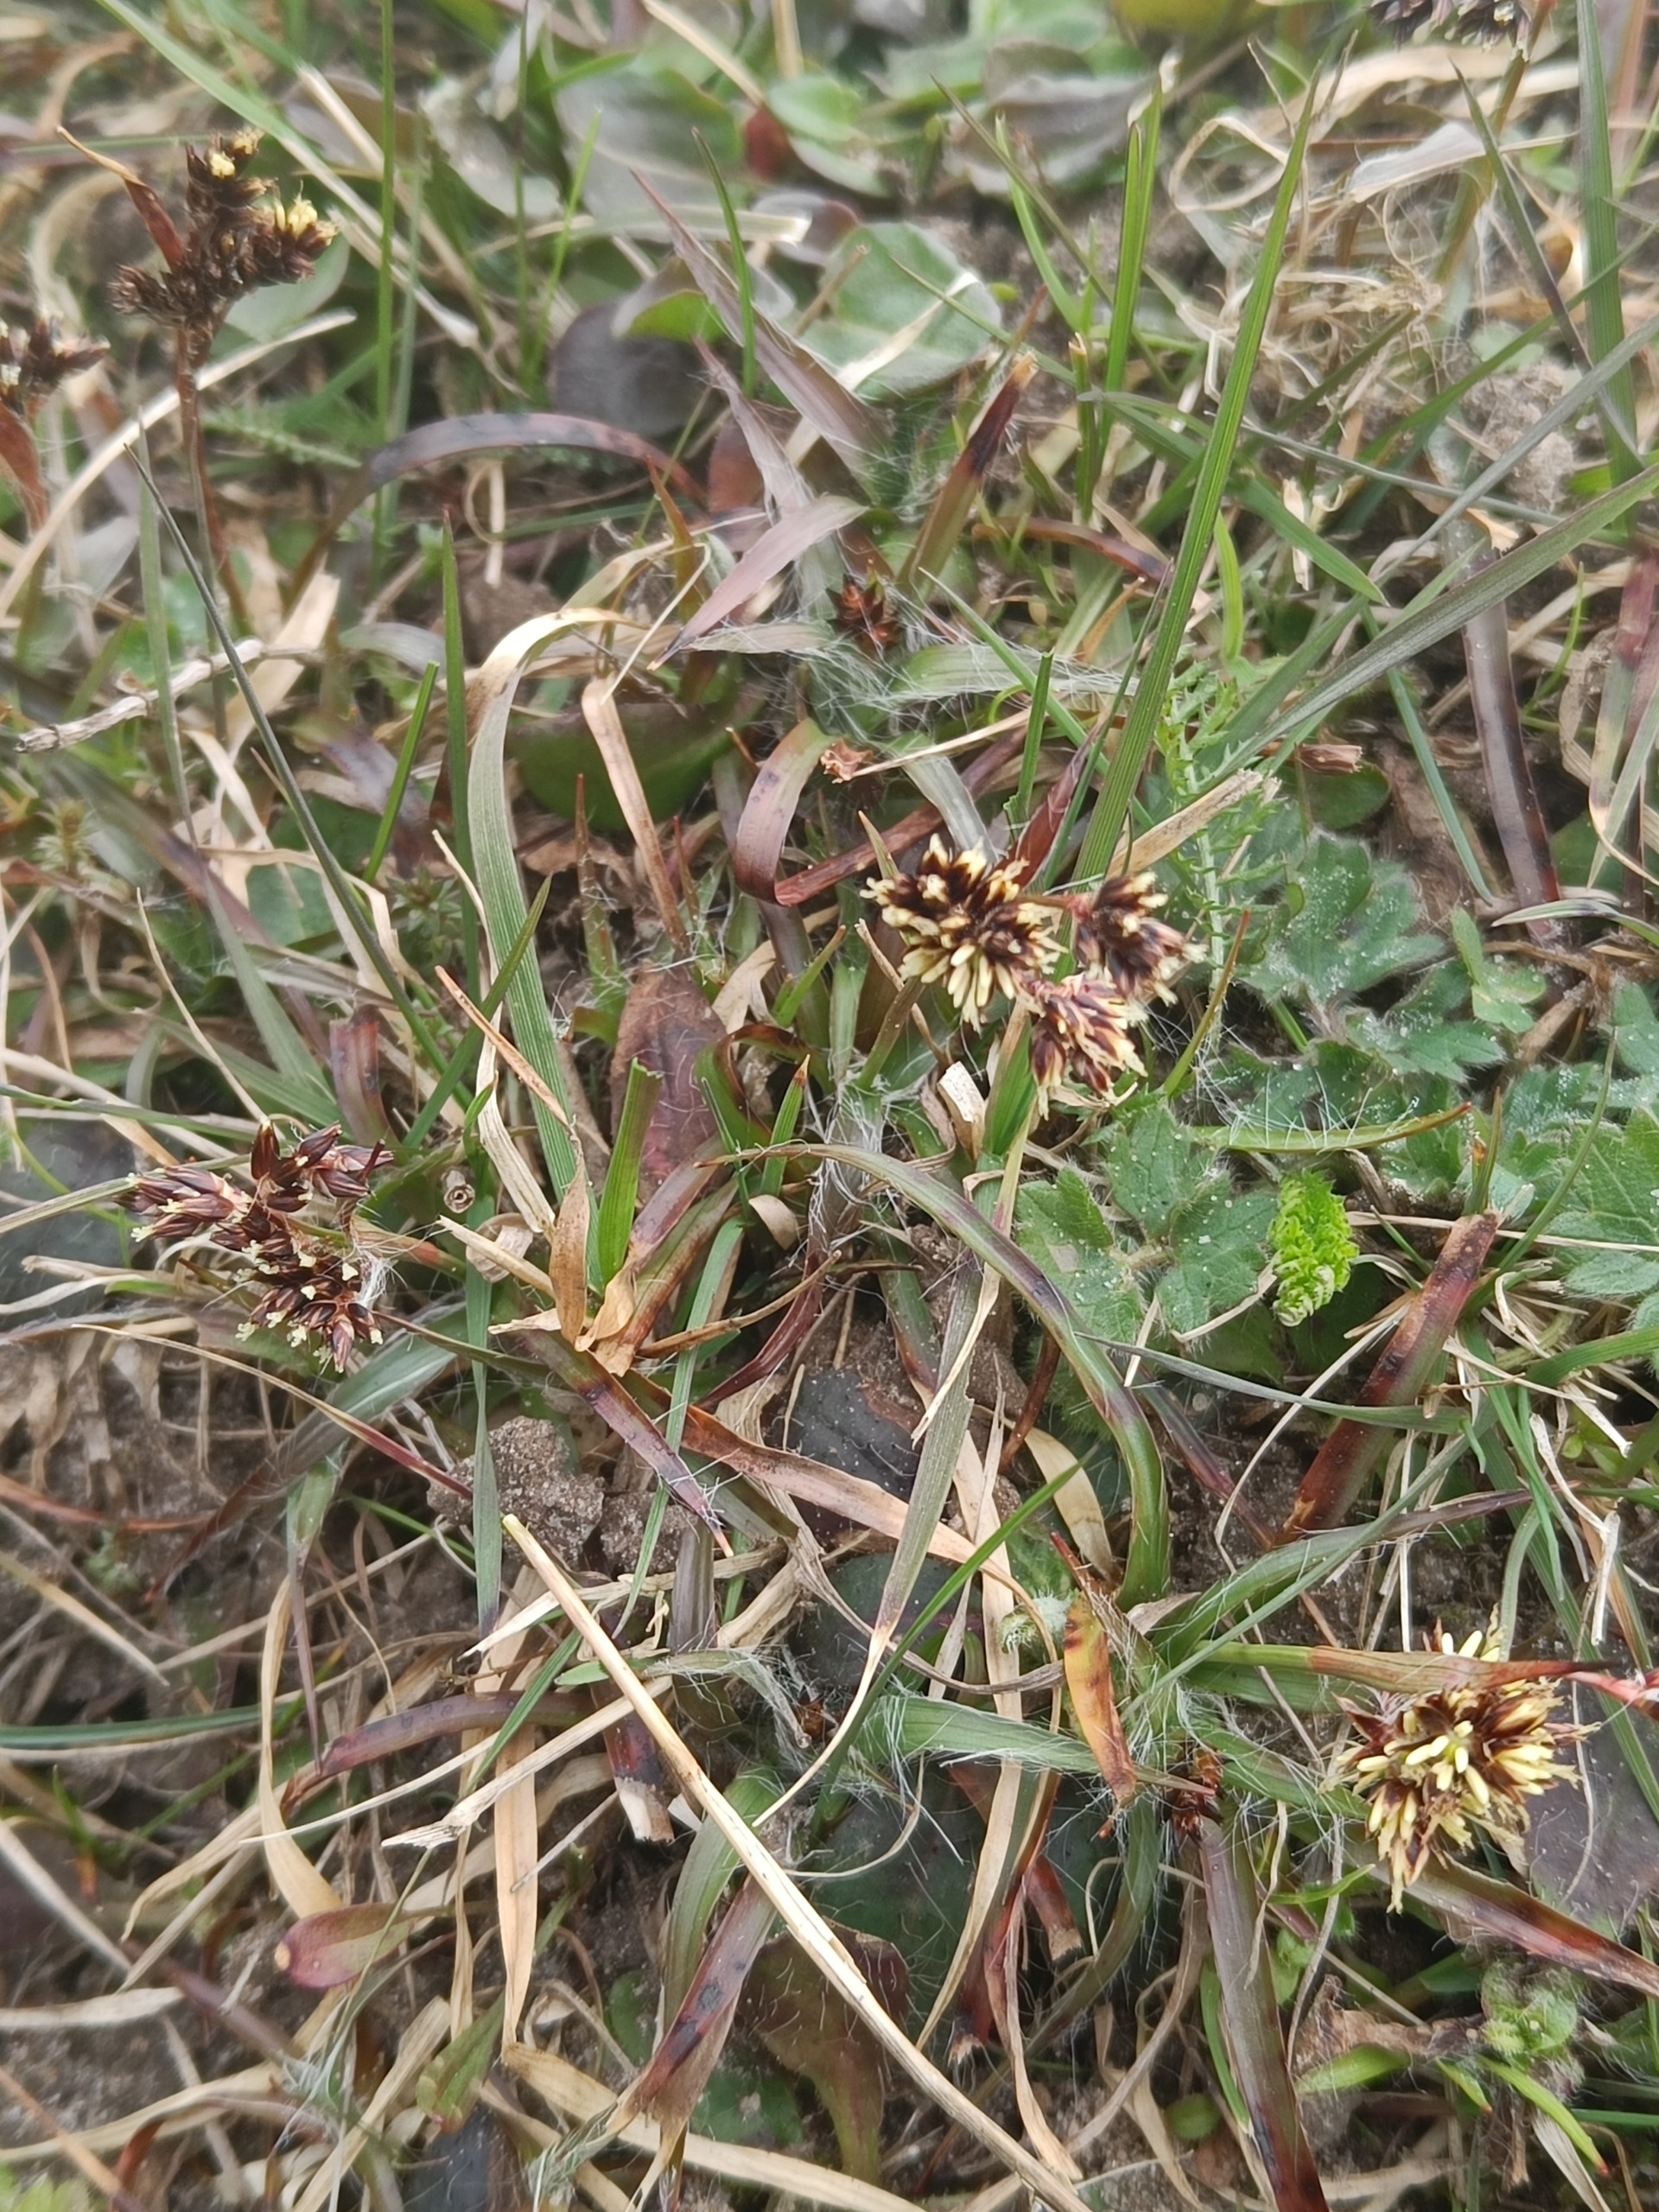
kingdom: Plantae
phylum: Tracheophyta
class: Liliopsida
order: Poales
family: Juncaceae
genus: Luzula
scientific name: Luzula campestris
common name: Mark-frytle
